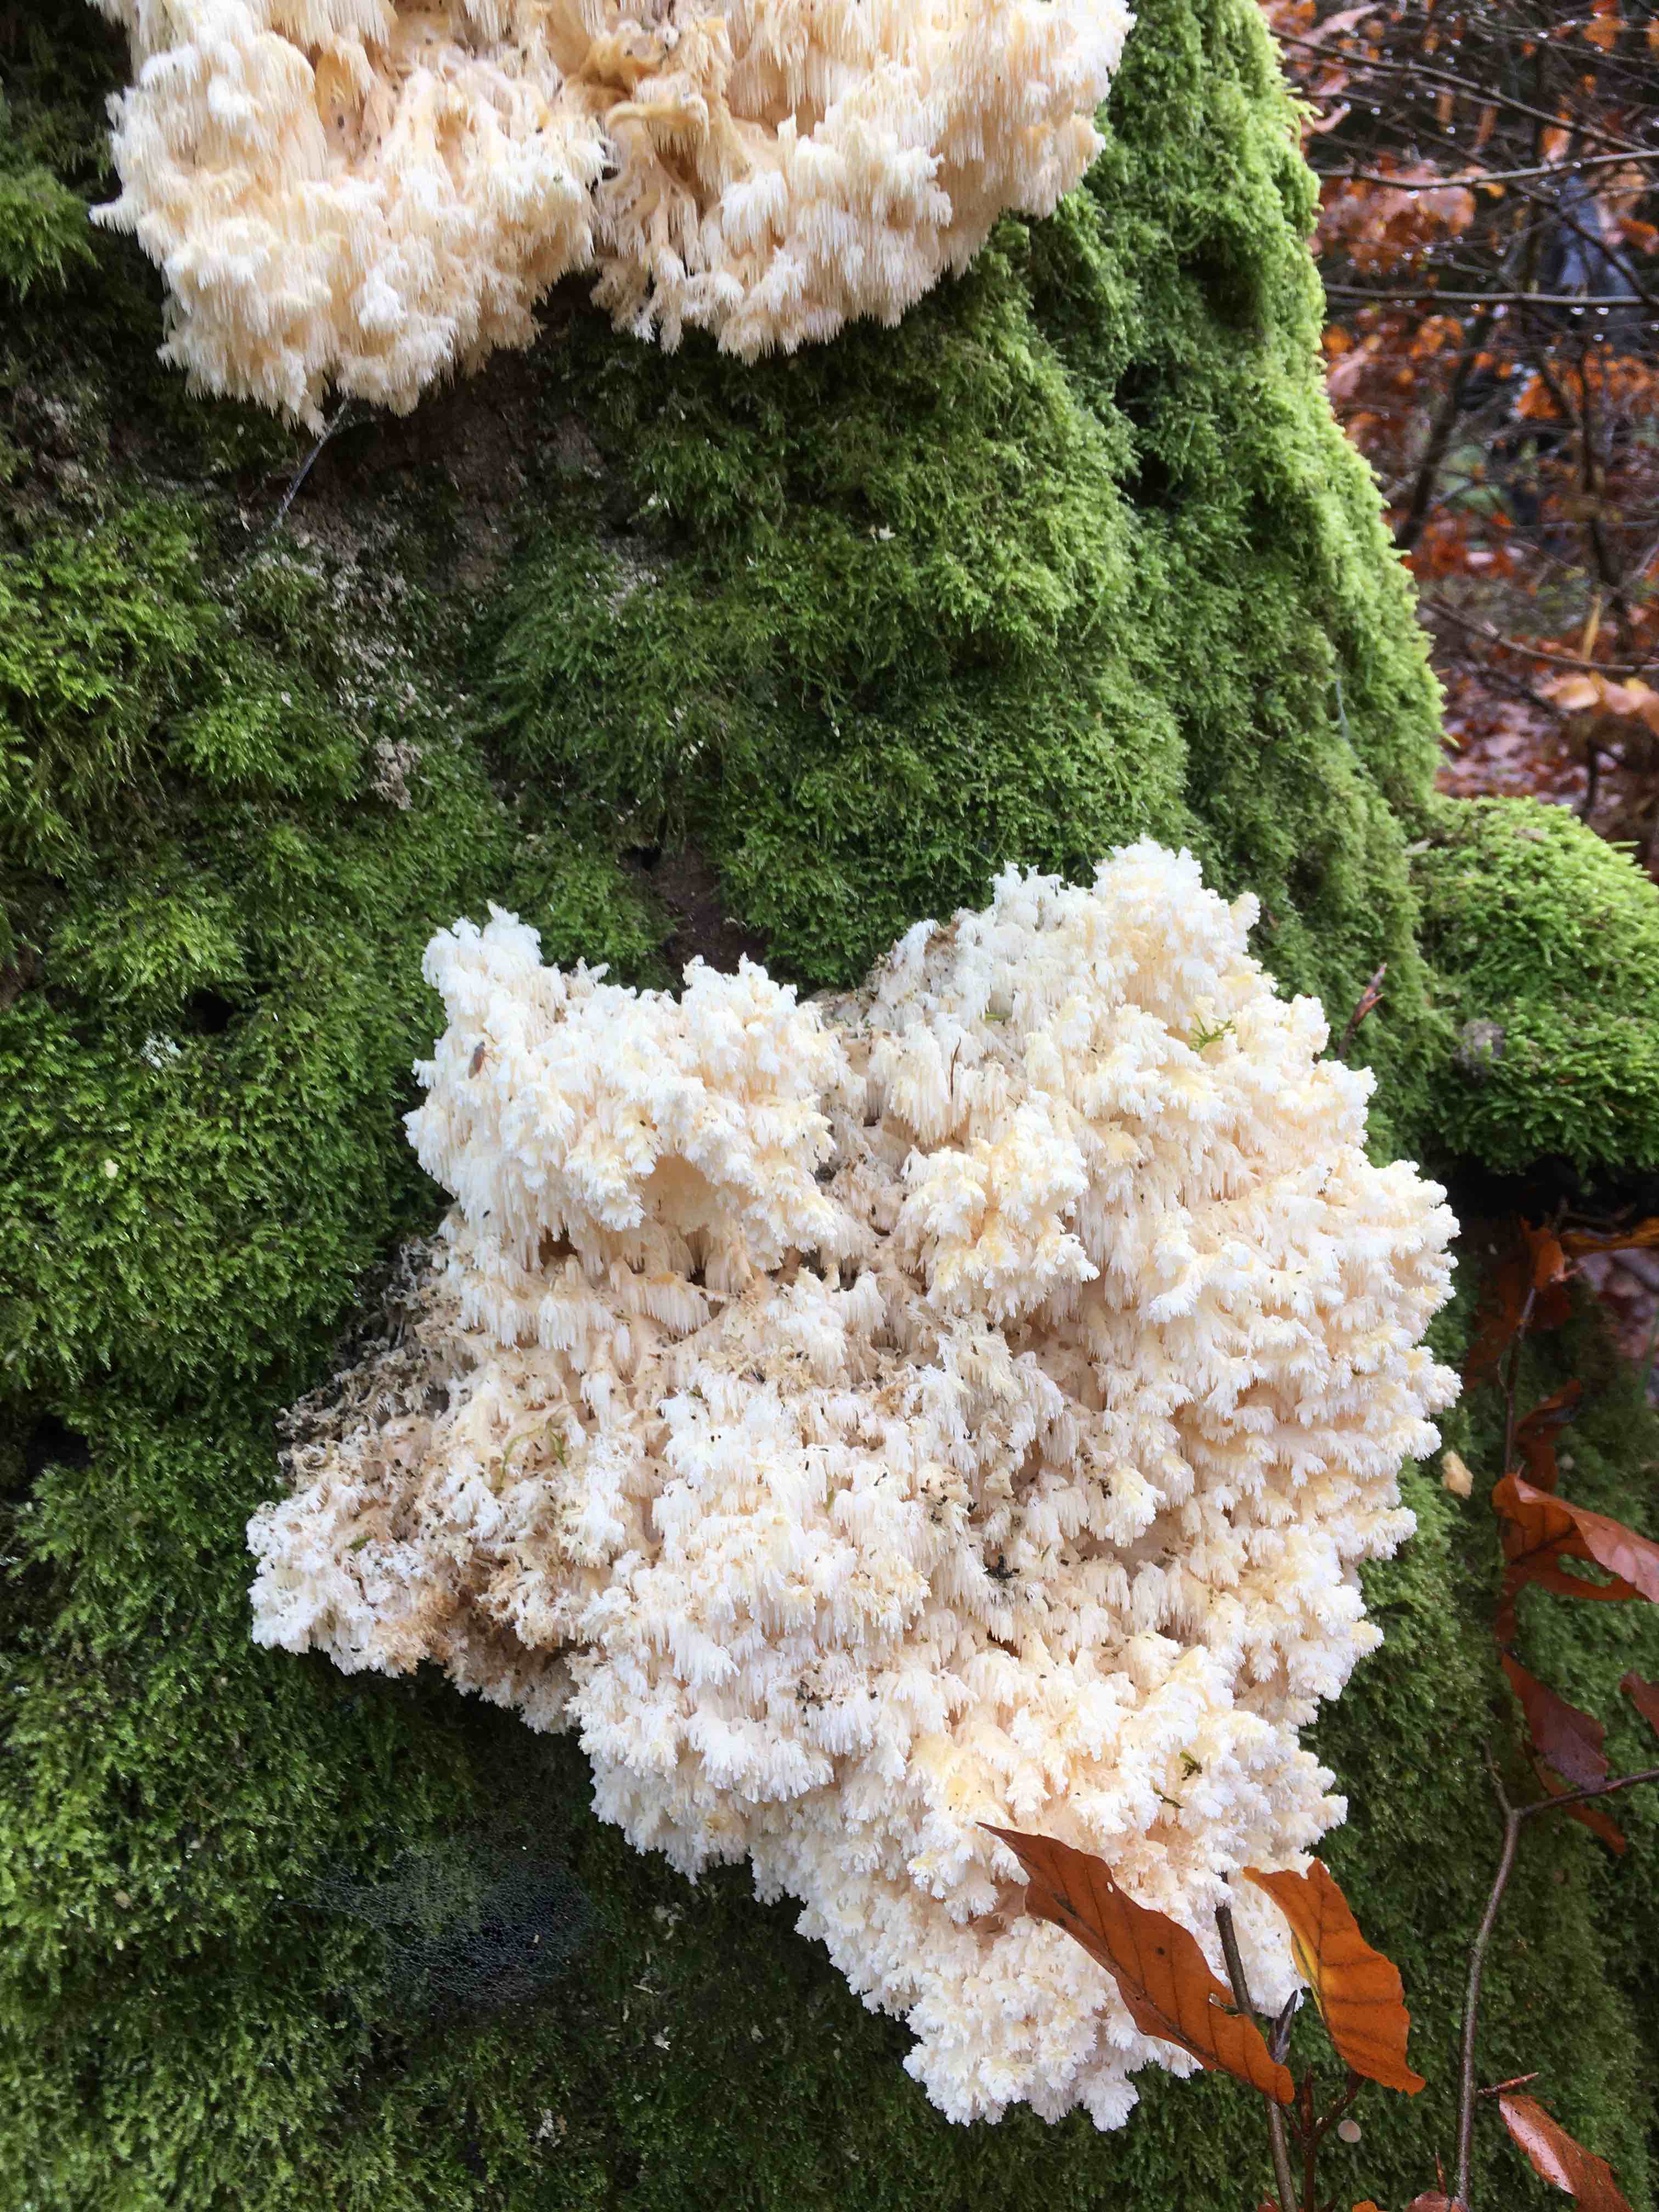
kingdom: Fungi
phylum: Basidiomycota
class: Agaricomycetes
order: Russulales
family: Hericiaceae
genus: Hericium
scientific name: Hericium coralloides
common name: koralpigsvamp
